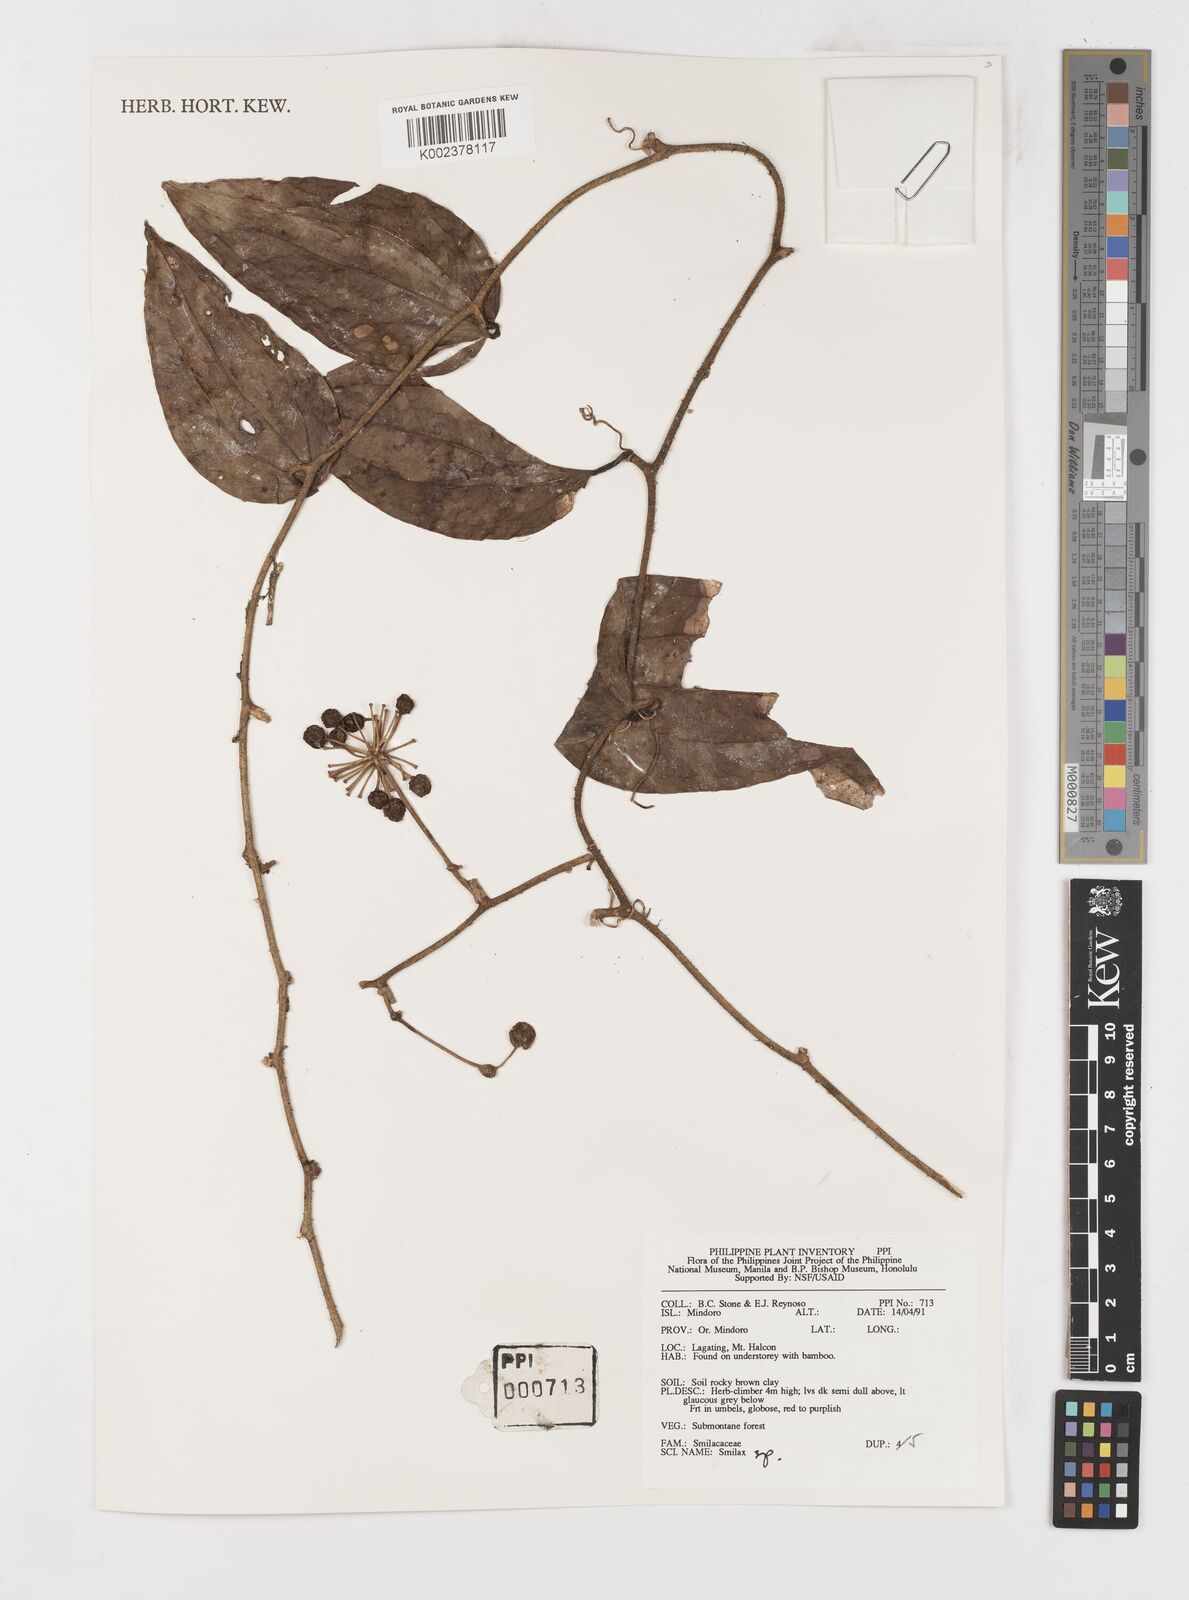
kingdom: Plantae
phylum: Tracheophyta
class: Liliopsida
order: Liliales
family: Smilacaceae
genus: Smilax
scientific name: Smilax
